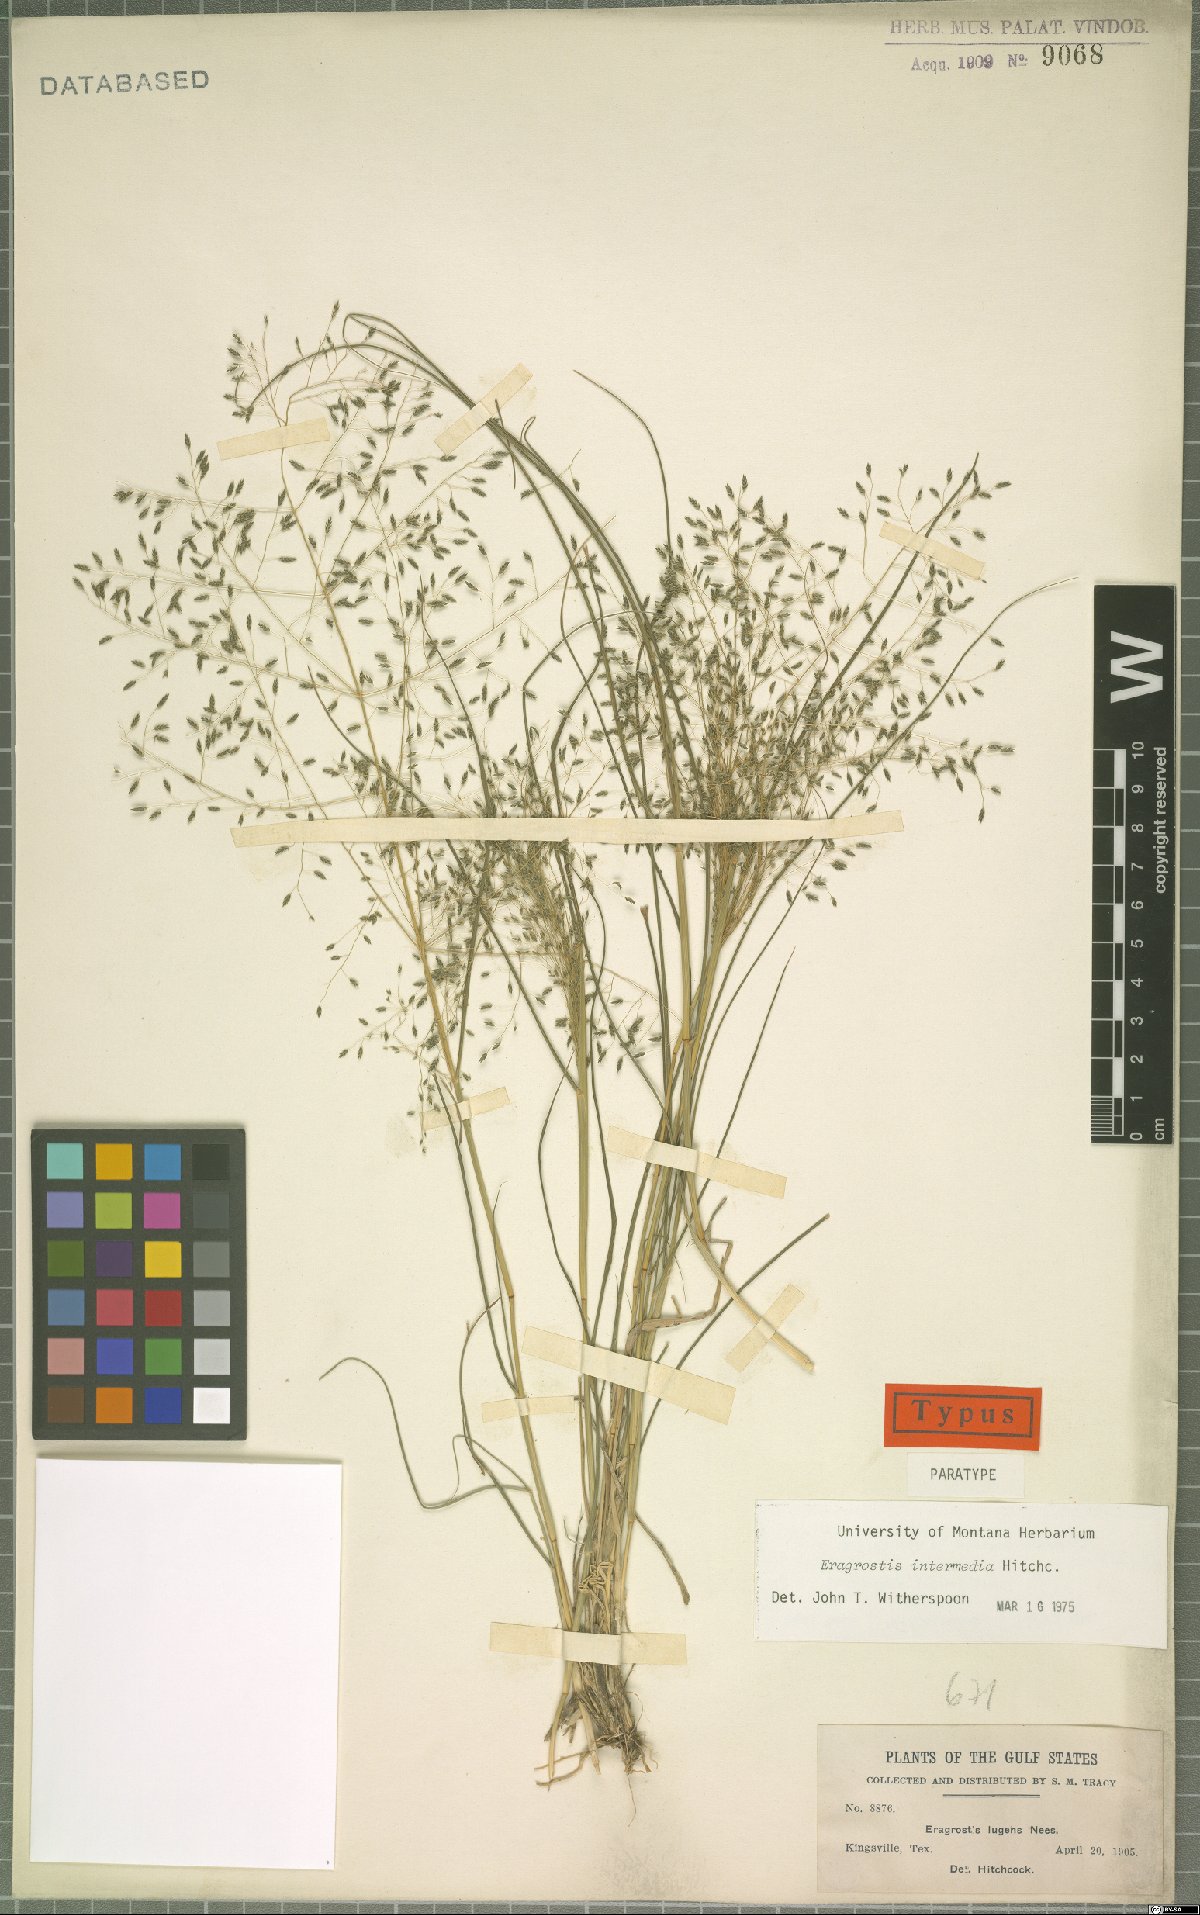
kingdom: Plantae
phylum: Tracheophyta
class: Liliopsida
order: Poales
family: Poaceae
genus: Eragrostis
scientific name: Eragrostis intermedia
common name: Plains love grass
